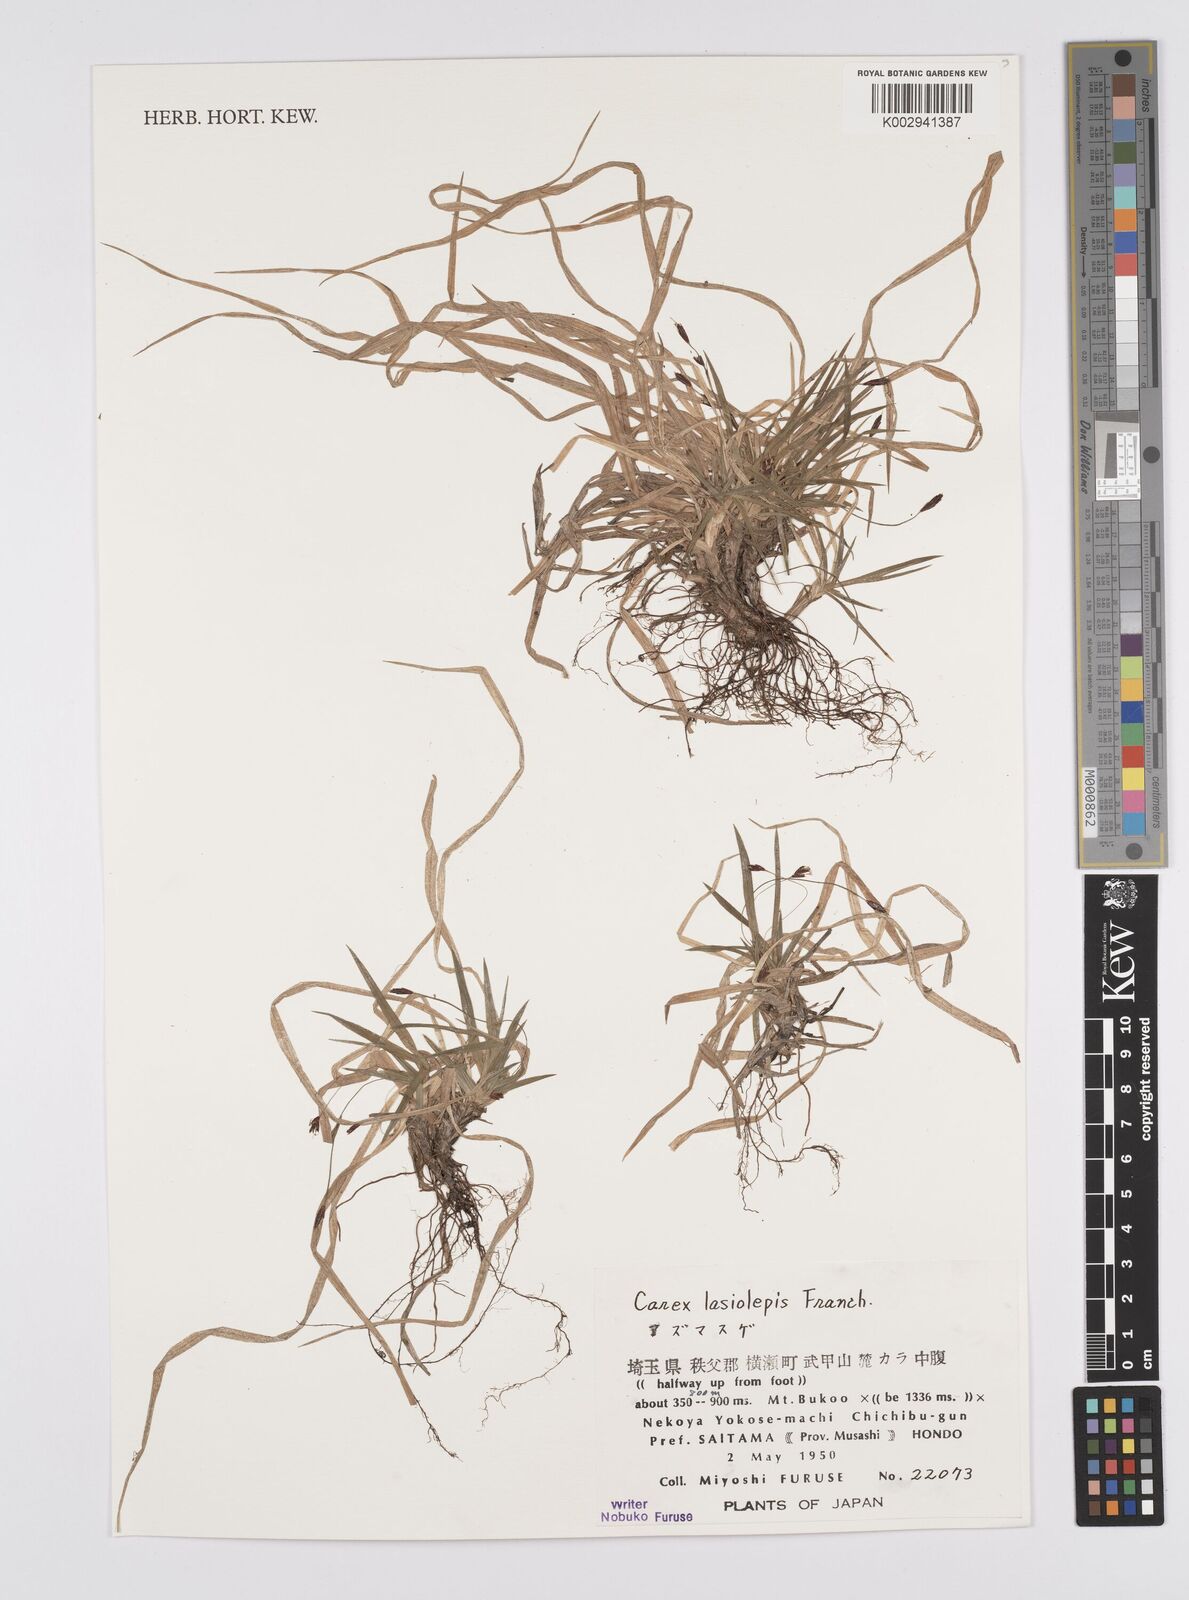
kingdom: Plantae
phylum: Tracheophyta
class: Liliopsida
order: Poales
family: Cyperaceae
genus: Carex
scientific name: Carex lasiolepis
